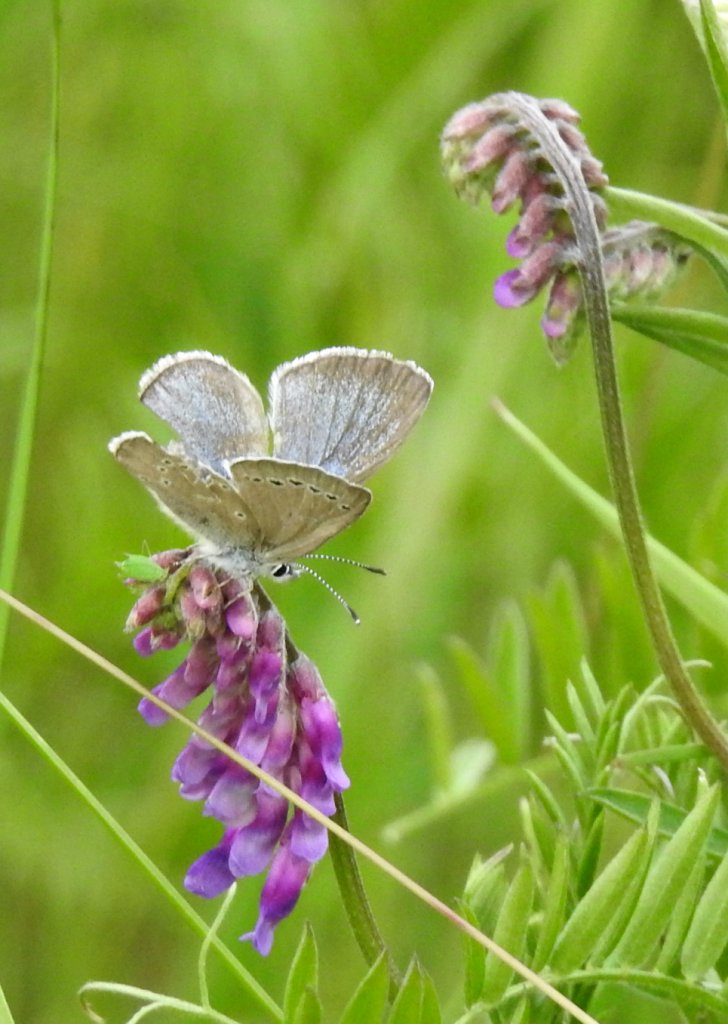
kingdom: Animalia
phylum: Arthropoda
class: Insecta
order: Lepidoptera
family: Lycaenidae
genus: Glaucopsyche
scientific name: Glaucopsyche lygdamus
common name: Silvery Blue
